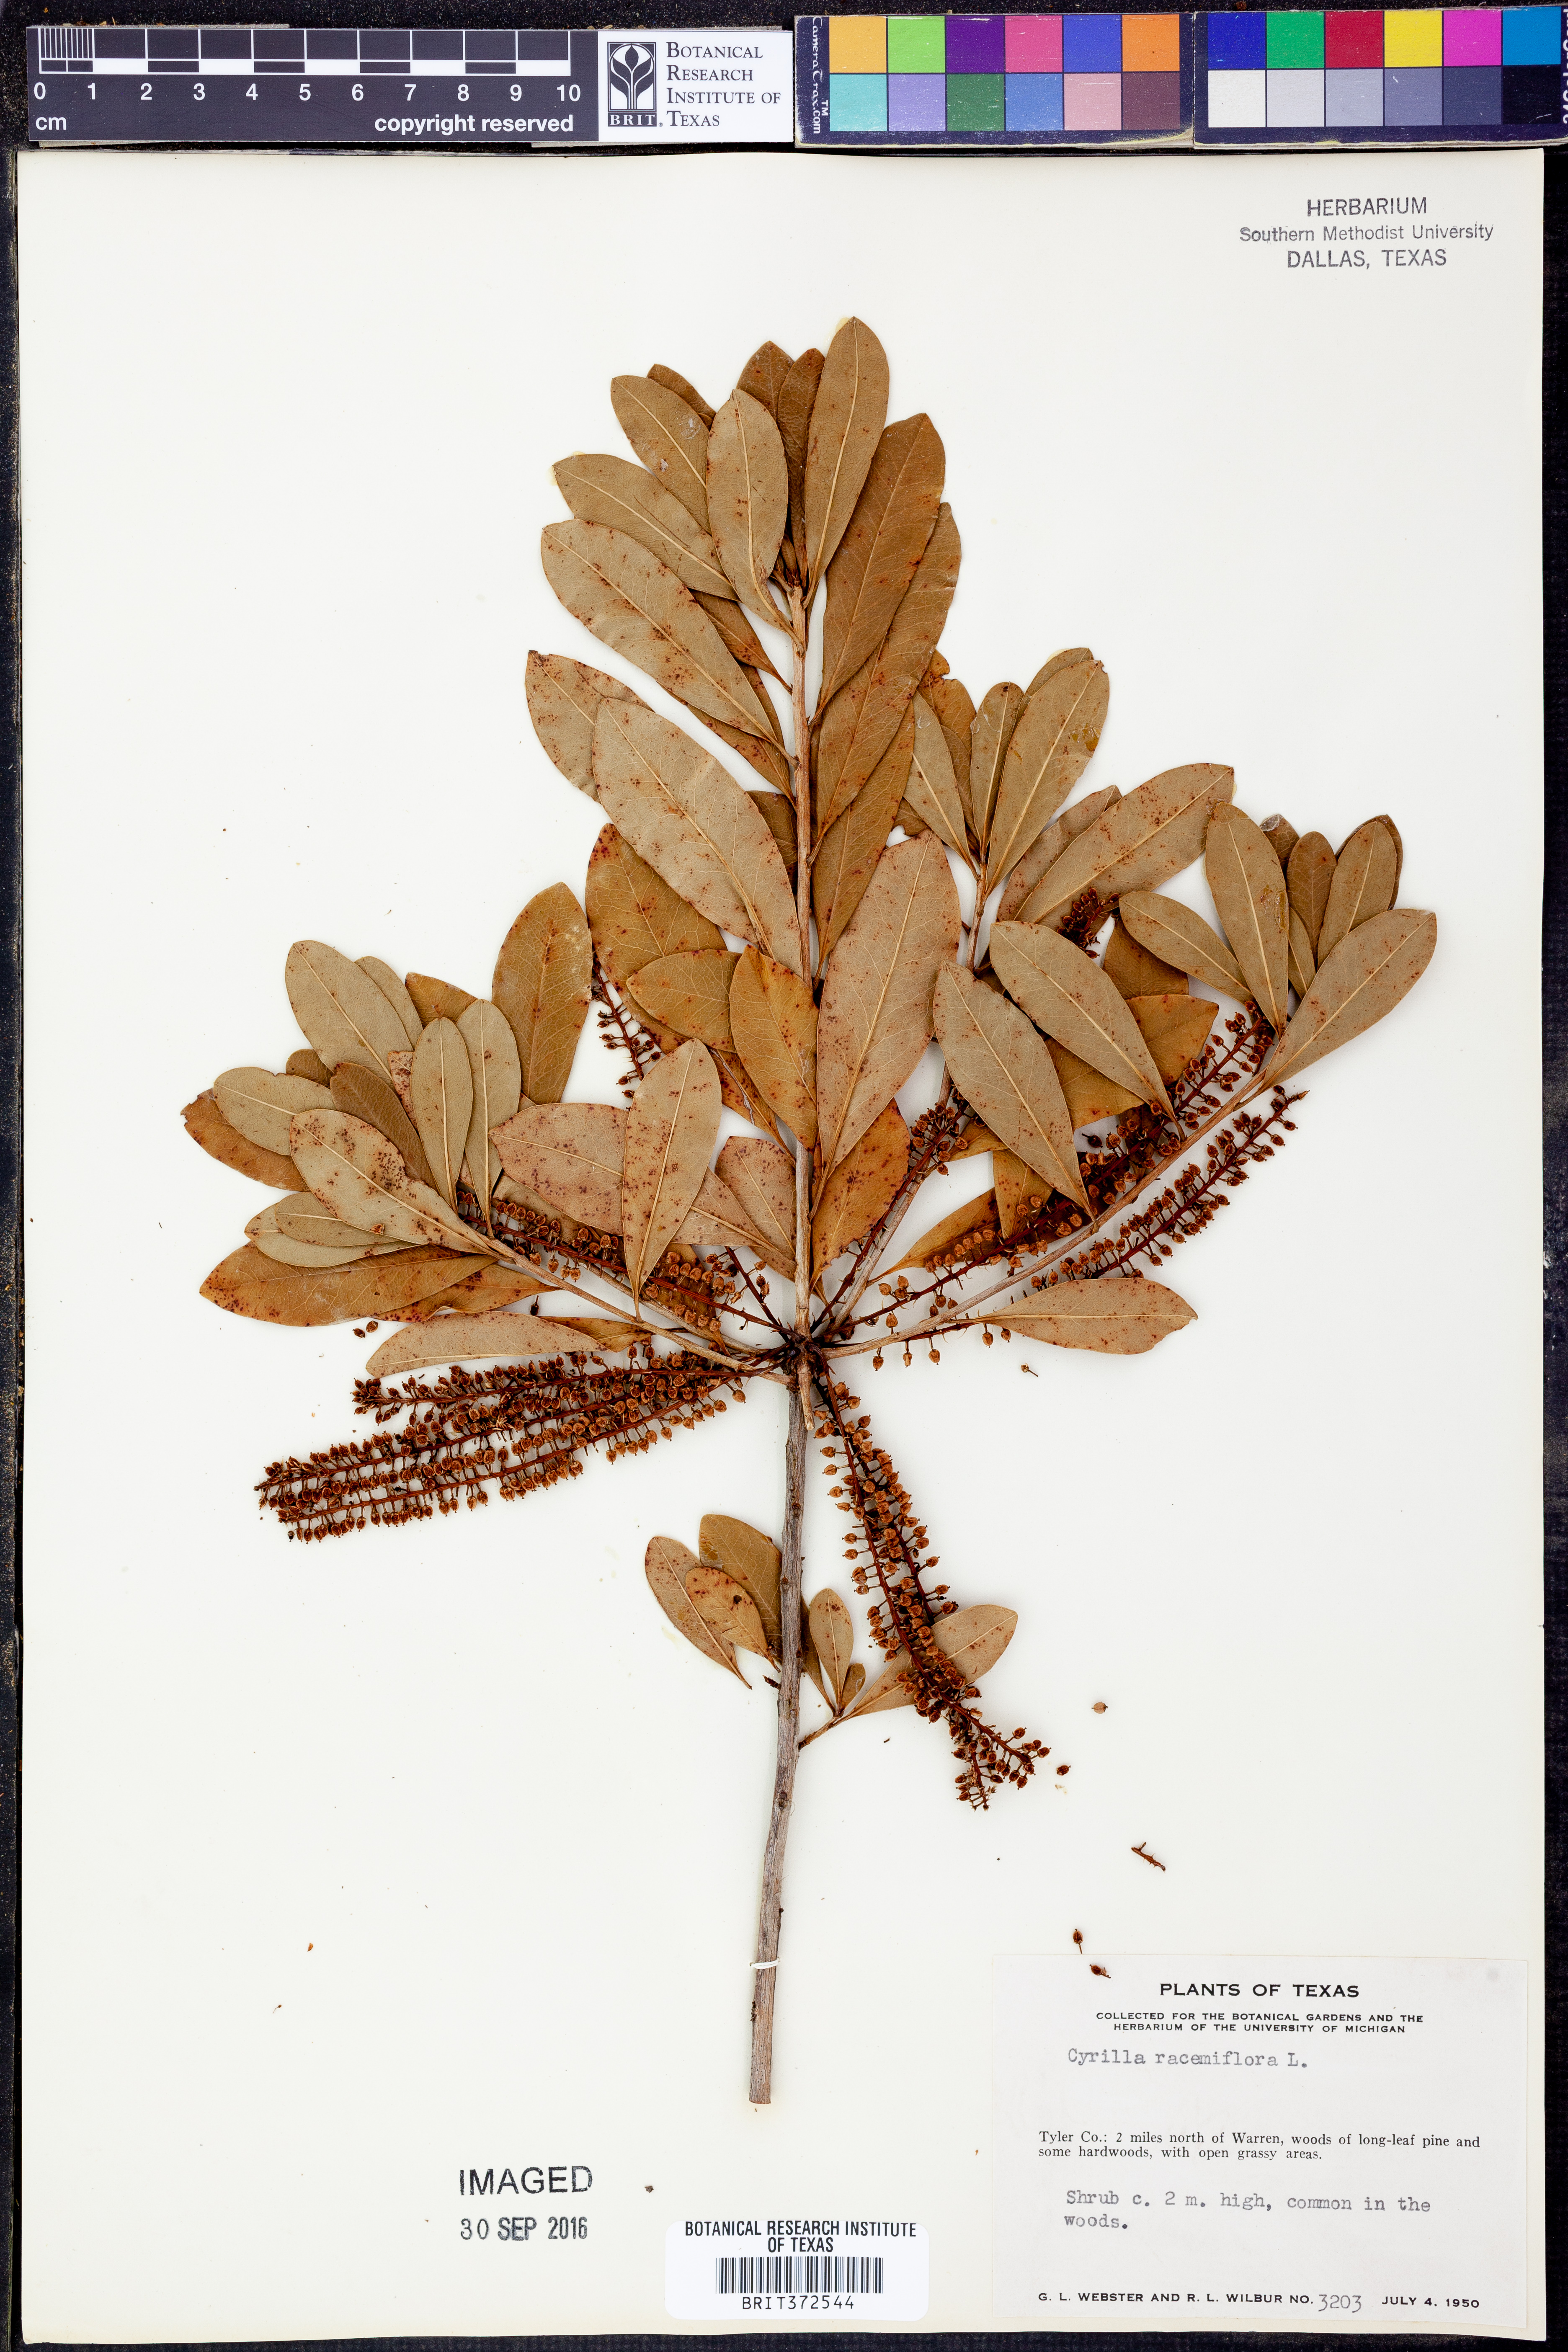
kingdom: Plantae
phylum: Tracheophyta
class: Magnoliopsida
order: Ericales
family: Cyrillaceae
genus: Cyrilla
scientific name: Cyrilla racemiflora
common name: Black titi
